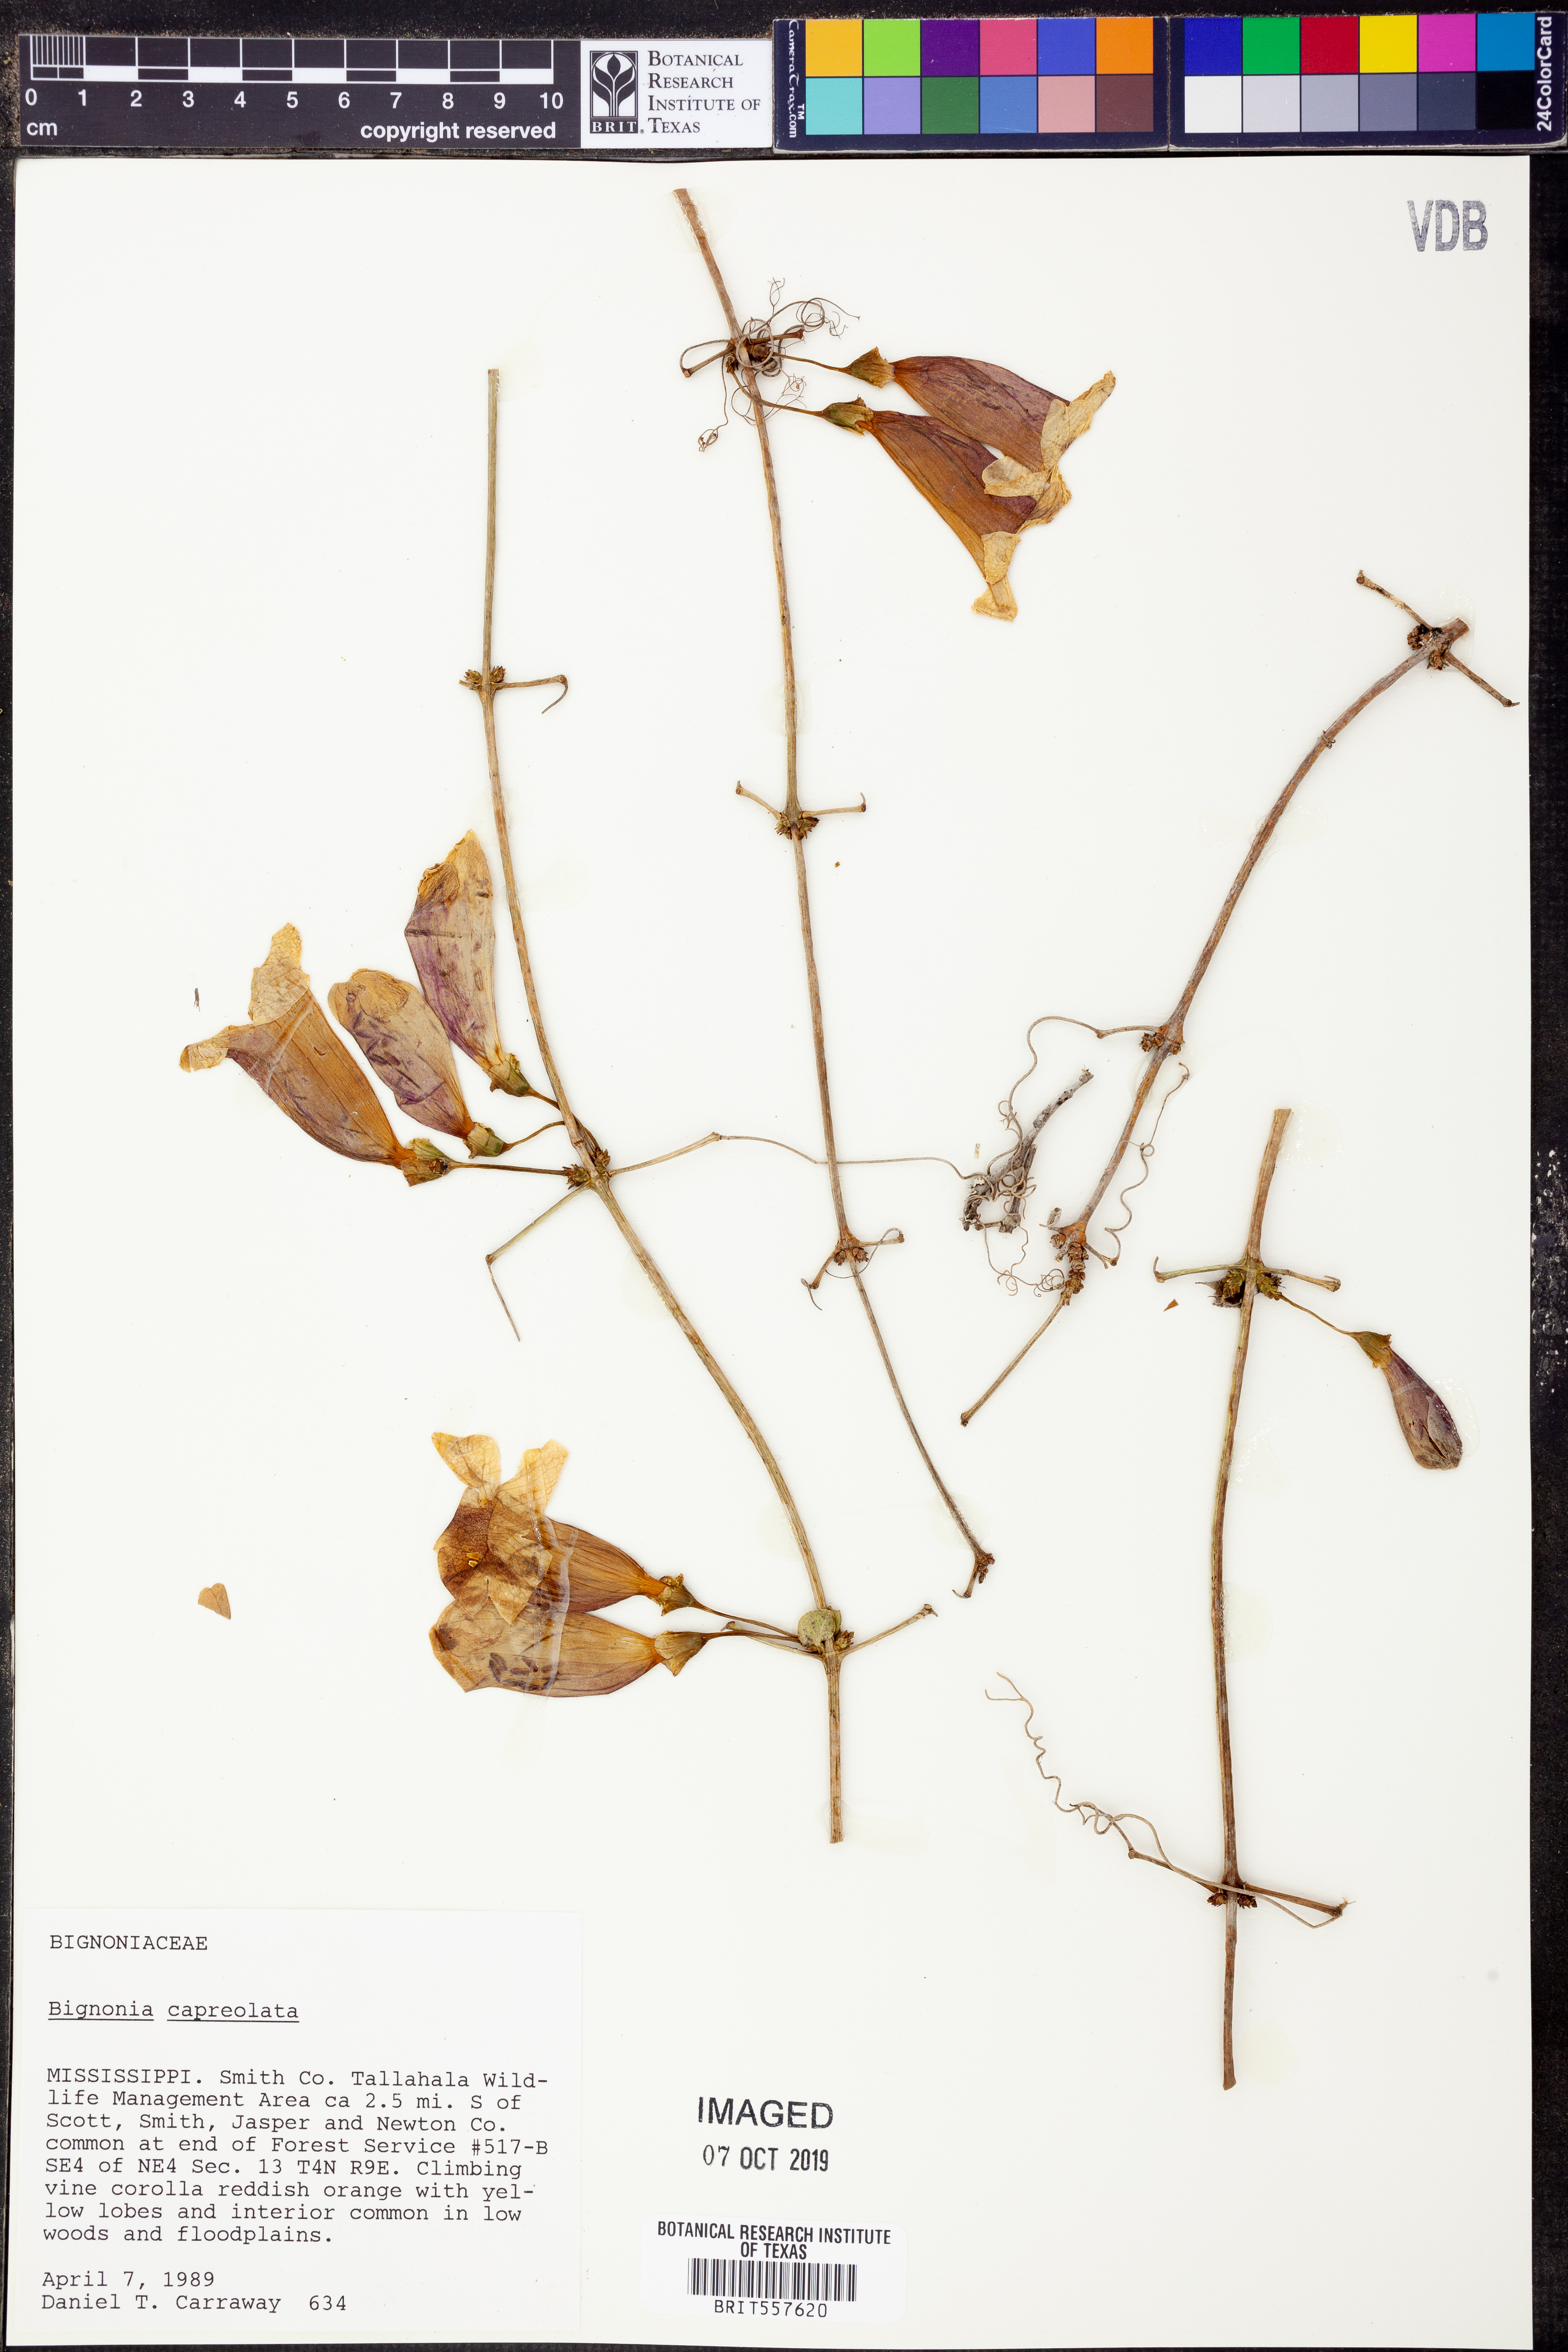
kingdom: Plantae
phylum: Tracheophyta
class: Magnoliopsida
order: Lamiales
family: Bignoniaceae
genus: Bignonia
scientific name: Bignonia capreolata
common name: Crossvine
